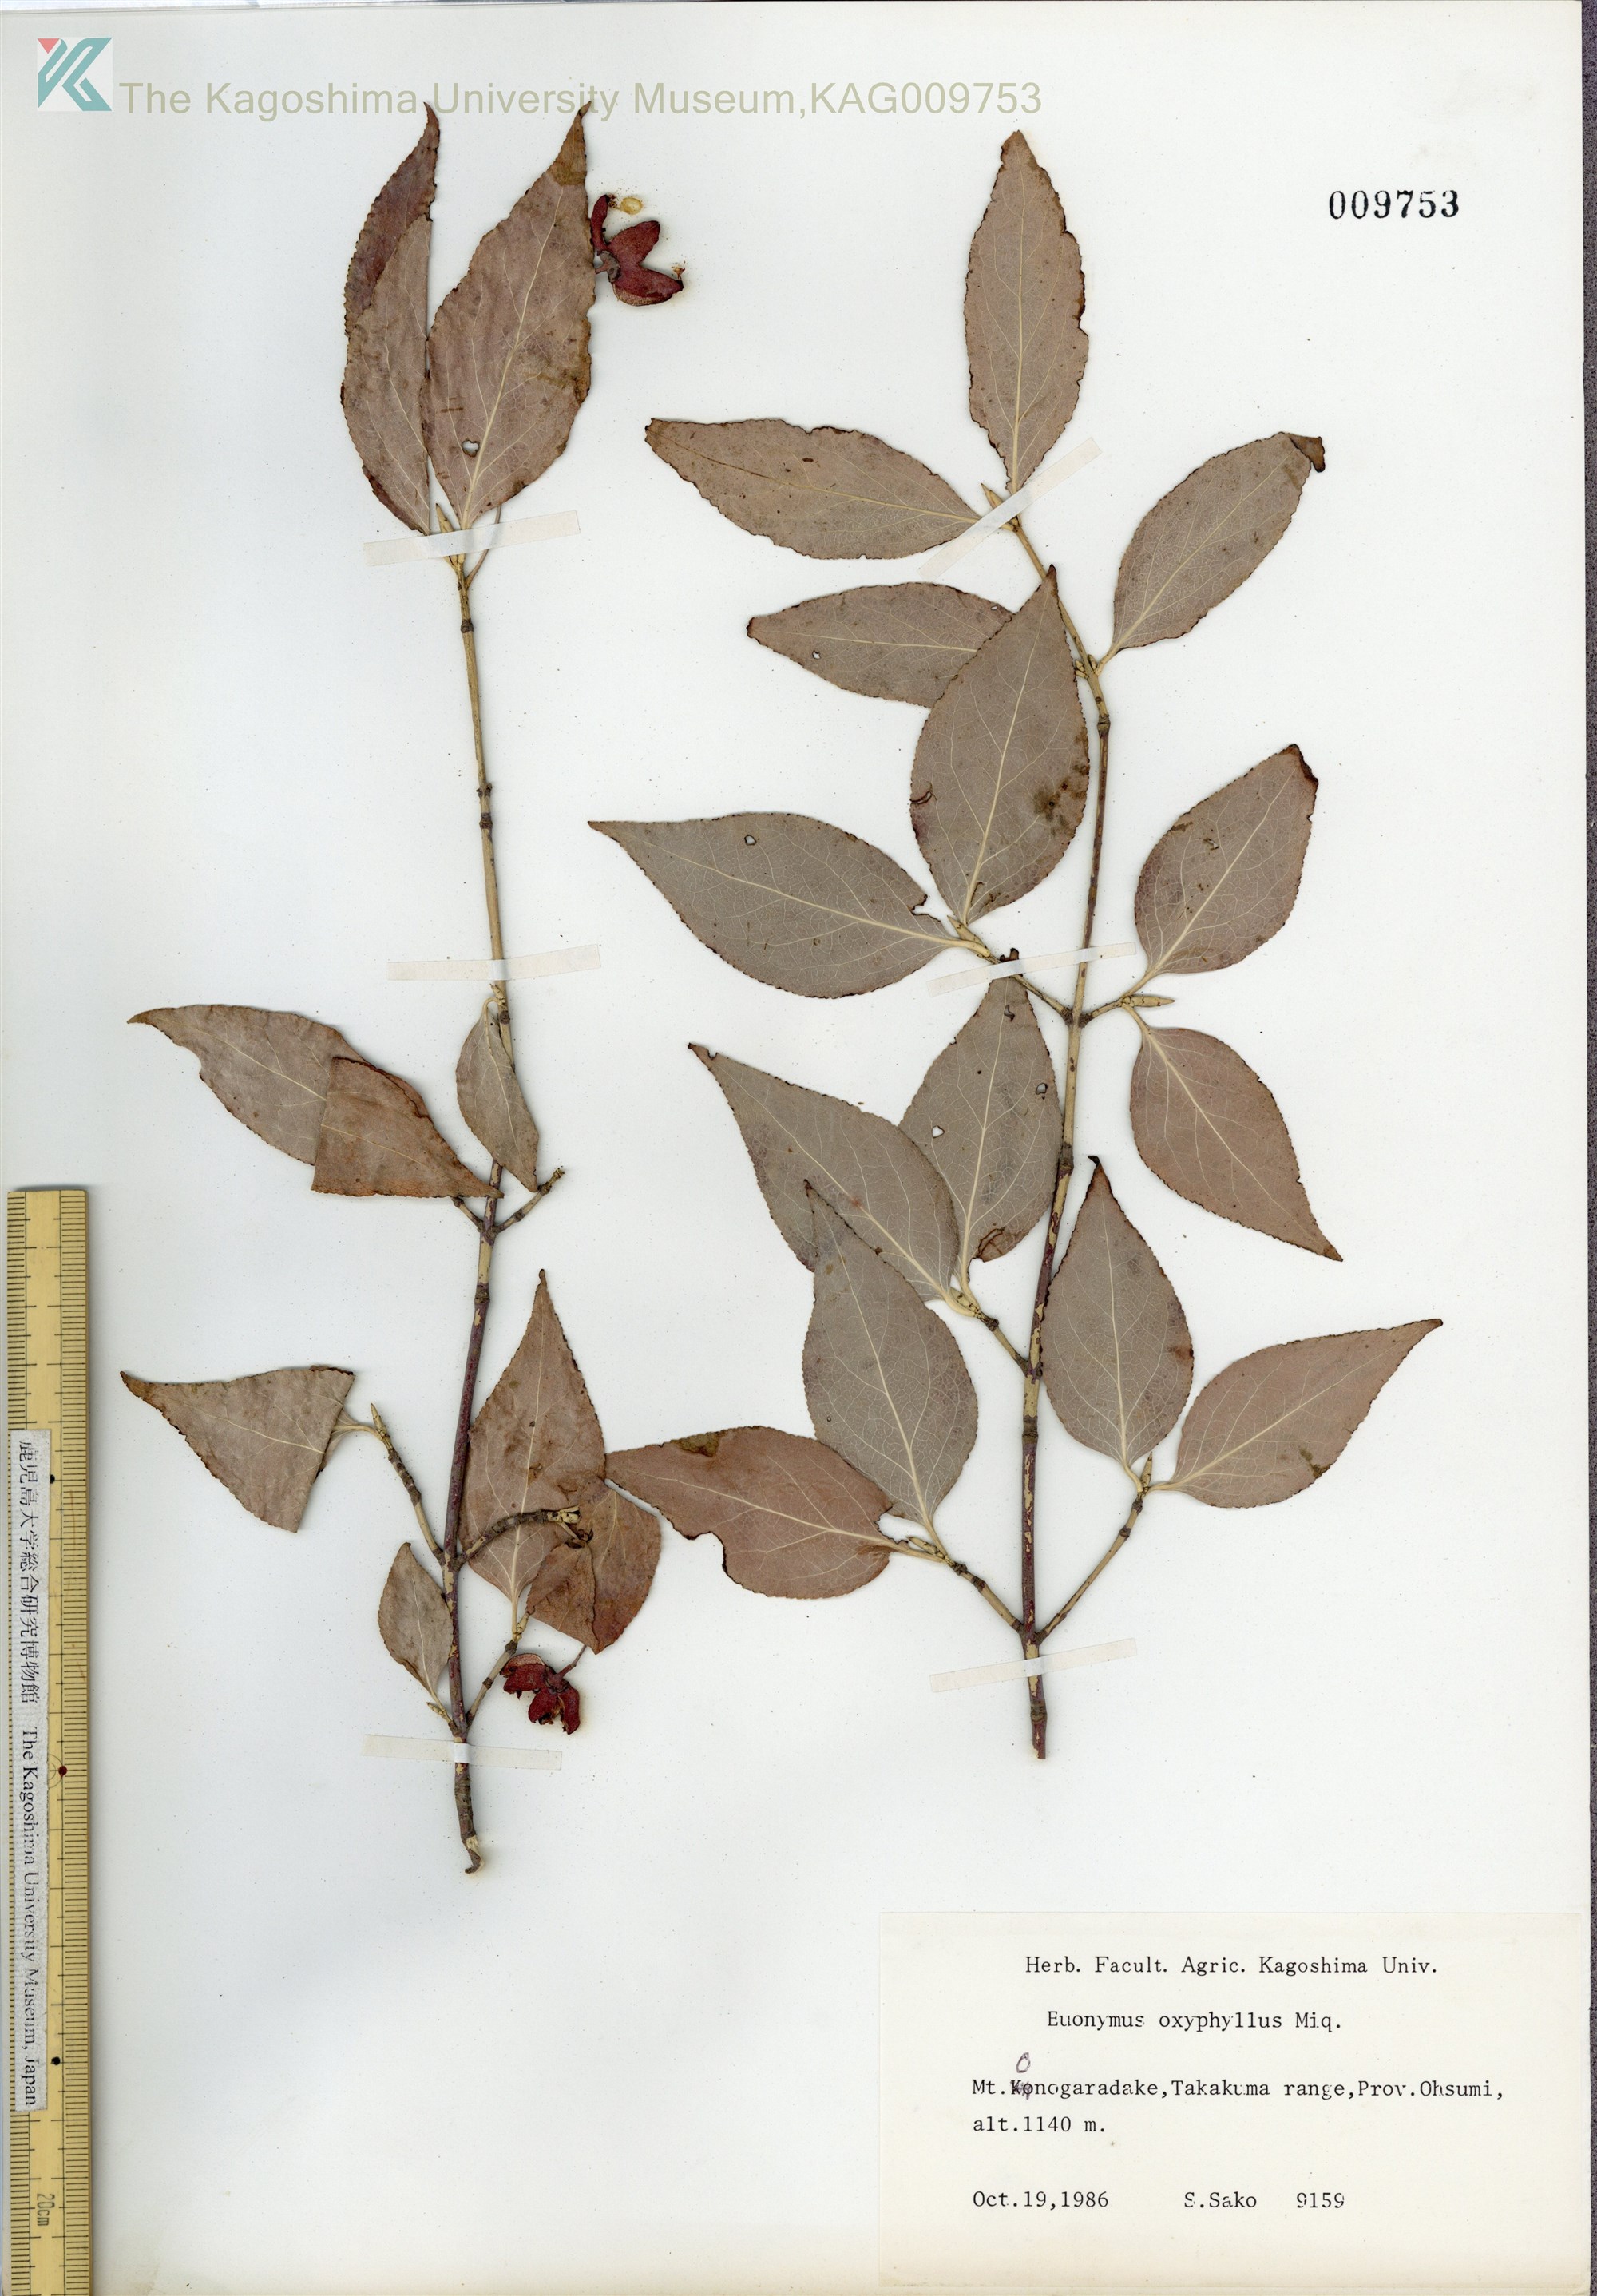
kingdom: Plantae
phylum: Tracheophyta
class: Magnoliopsida
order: Celastrales
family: Celastraceae
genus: Euonymus
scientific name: Euonymus oxyphyllus
